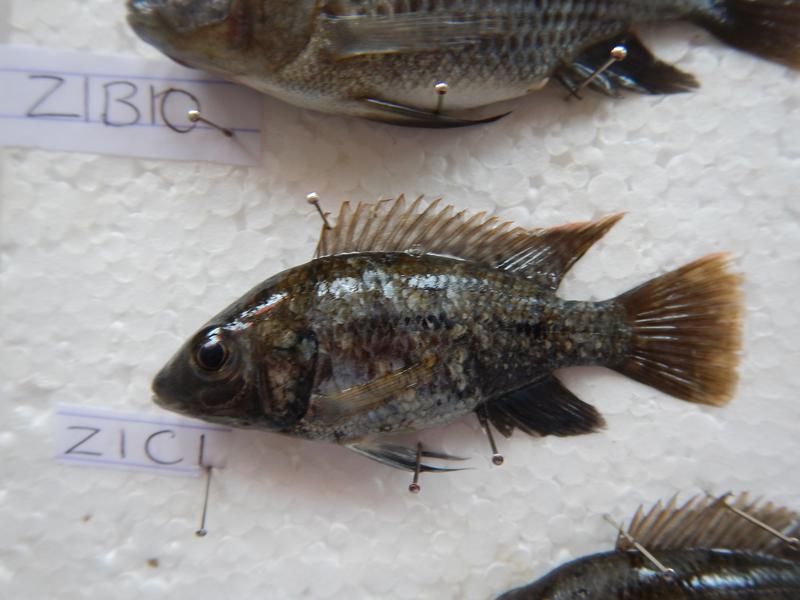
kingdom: Animalia
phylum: Chordata
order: Perciformes
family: Cichlidae
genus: Oreochromis
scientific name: Oreochromis urolepis
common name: Wami tilapia
